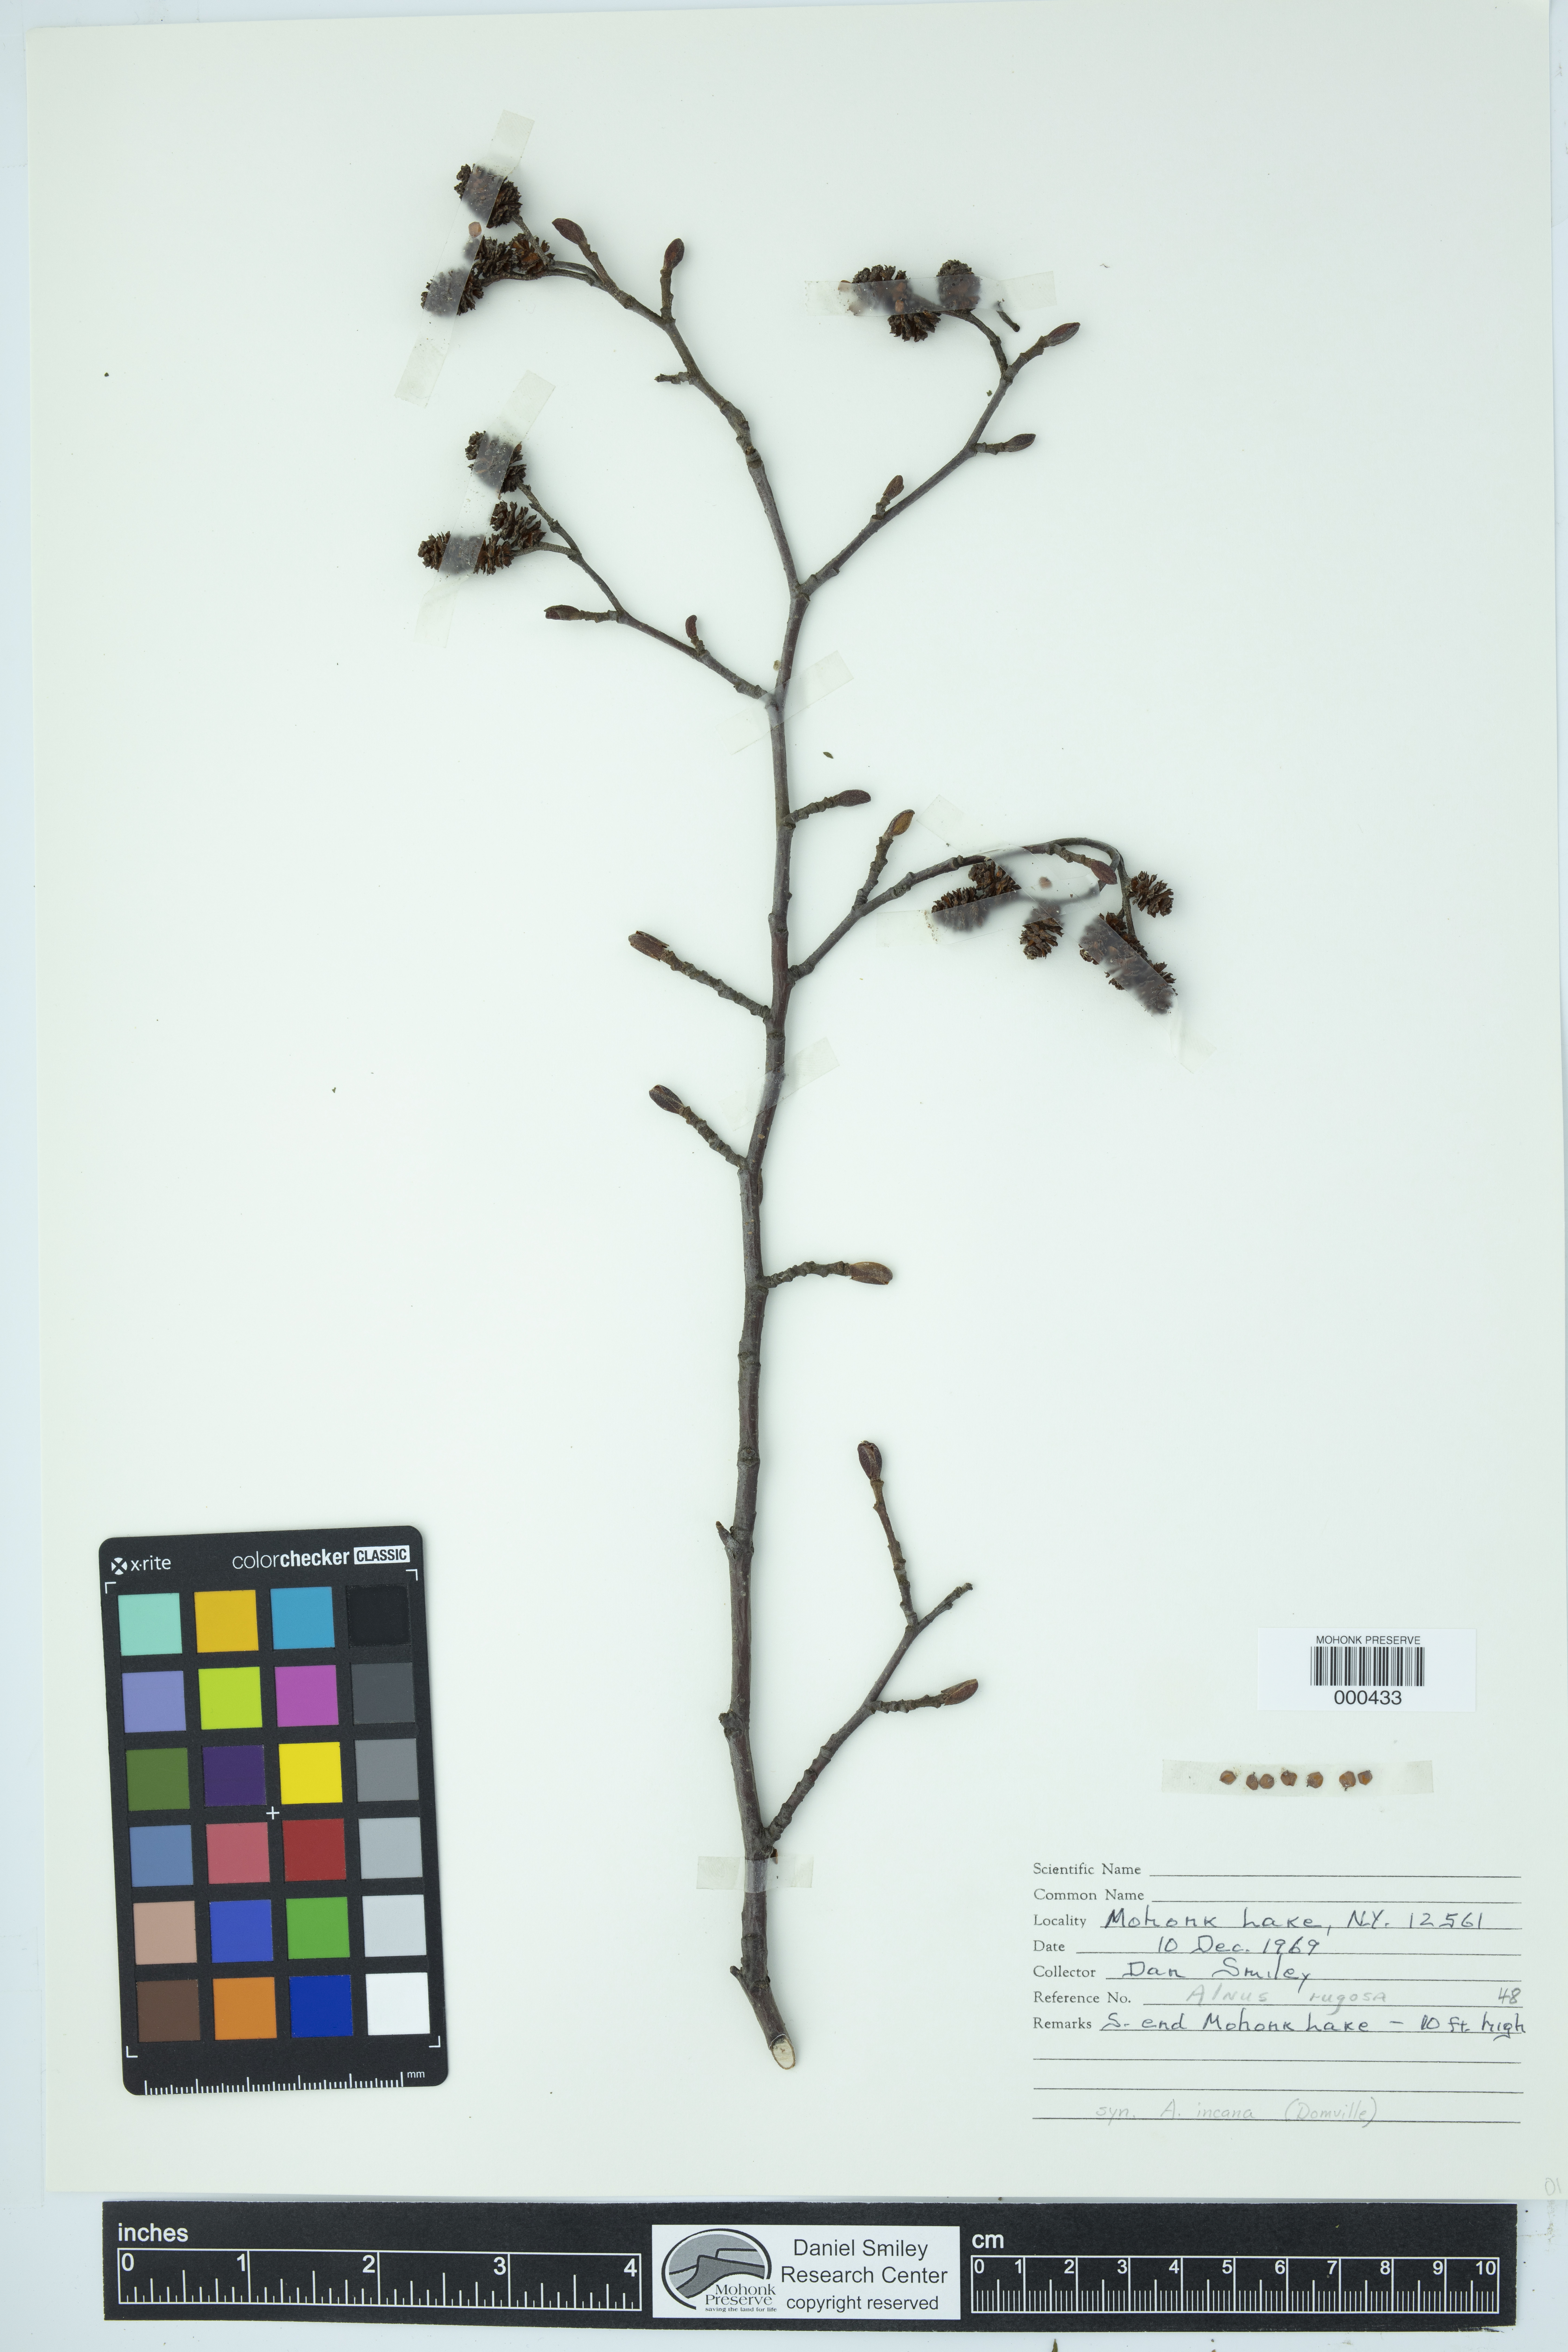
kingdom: Plantae
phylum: Tracheophyta
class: Magnoliopsida
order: Fagales
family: Betulaceae
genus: Alnus
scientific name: Alnus incana
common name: Grey alder
